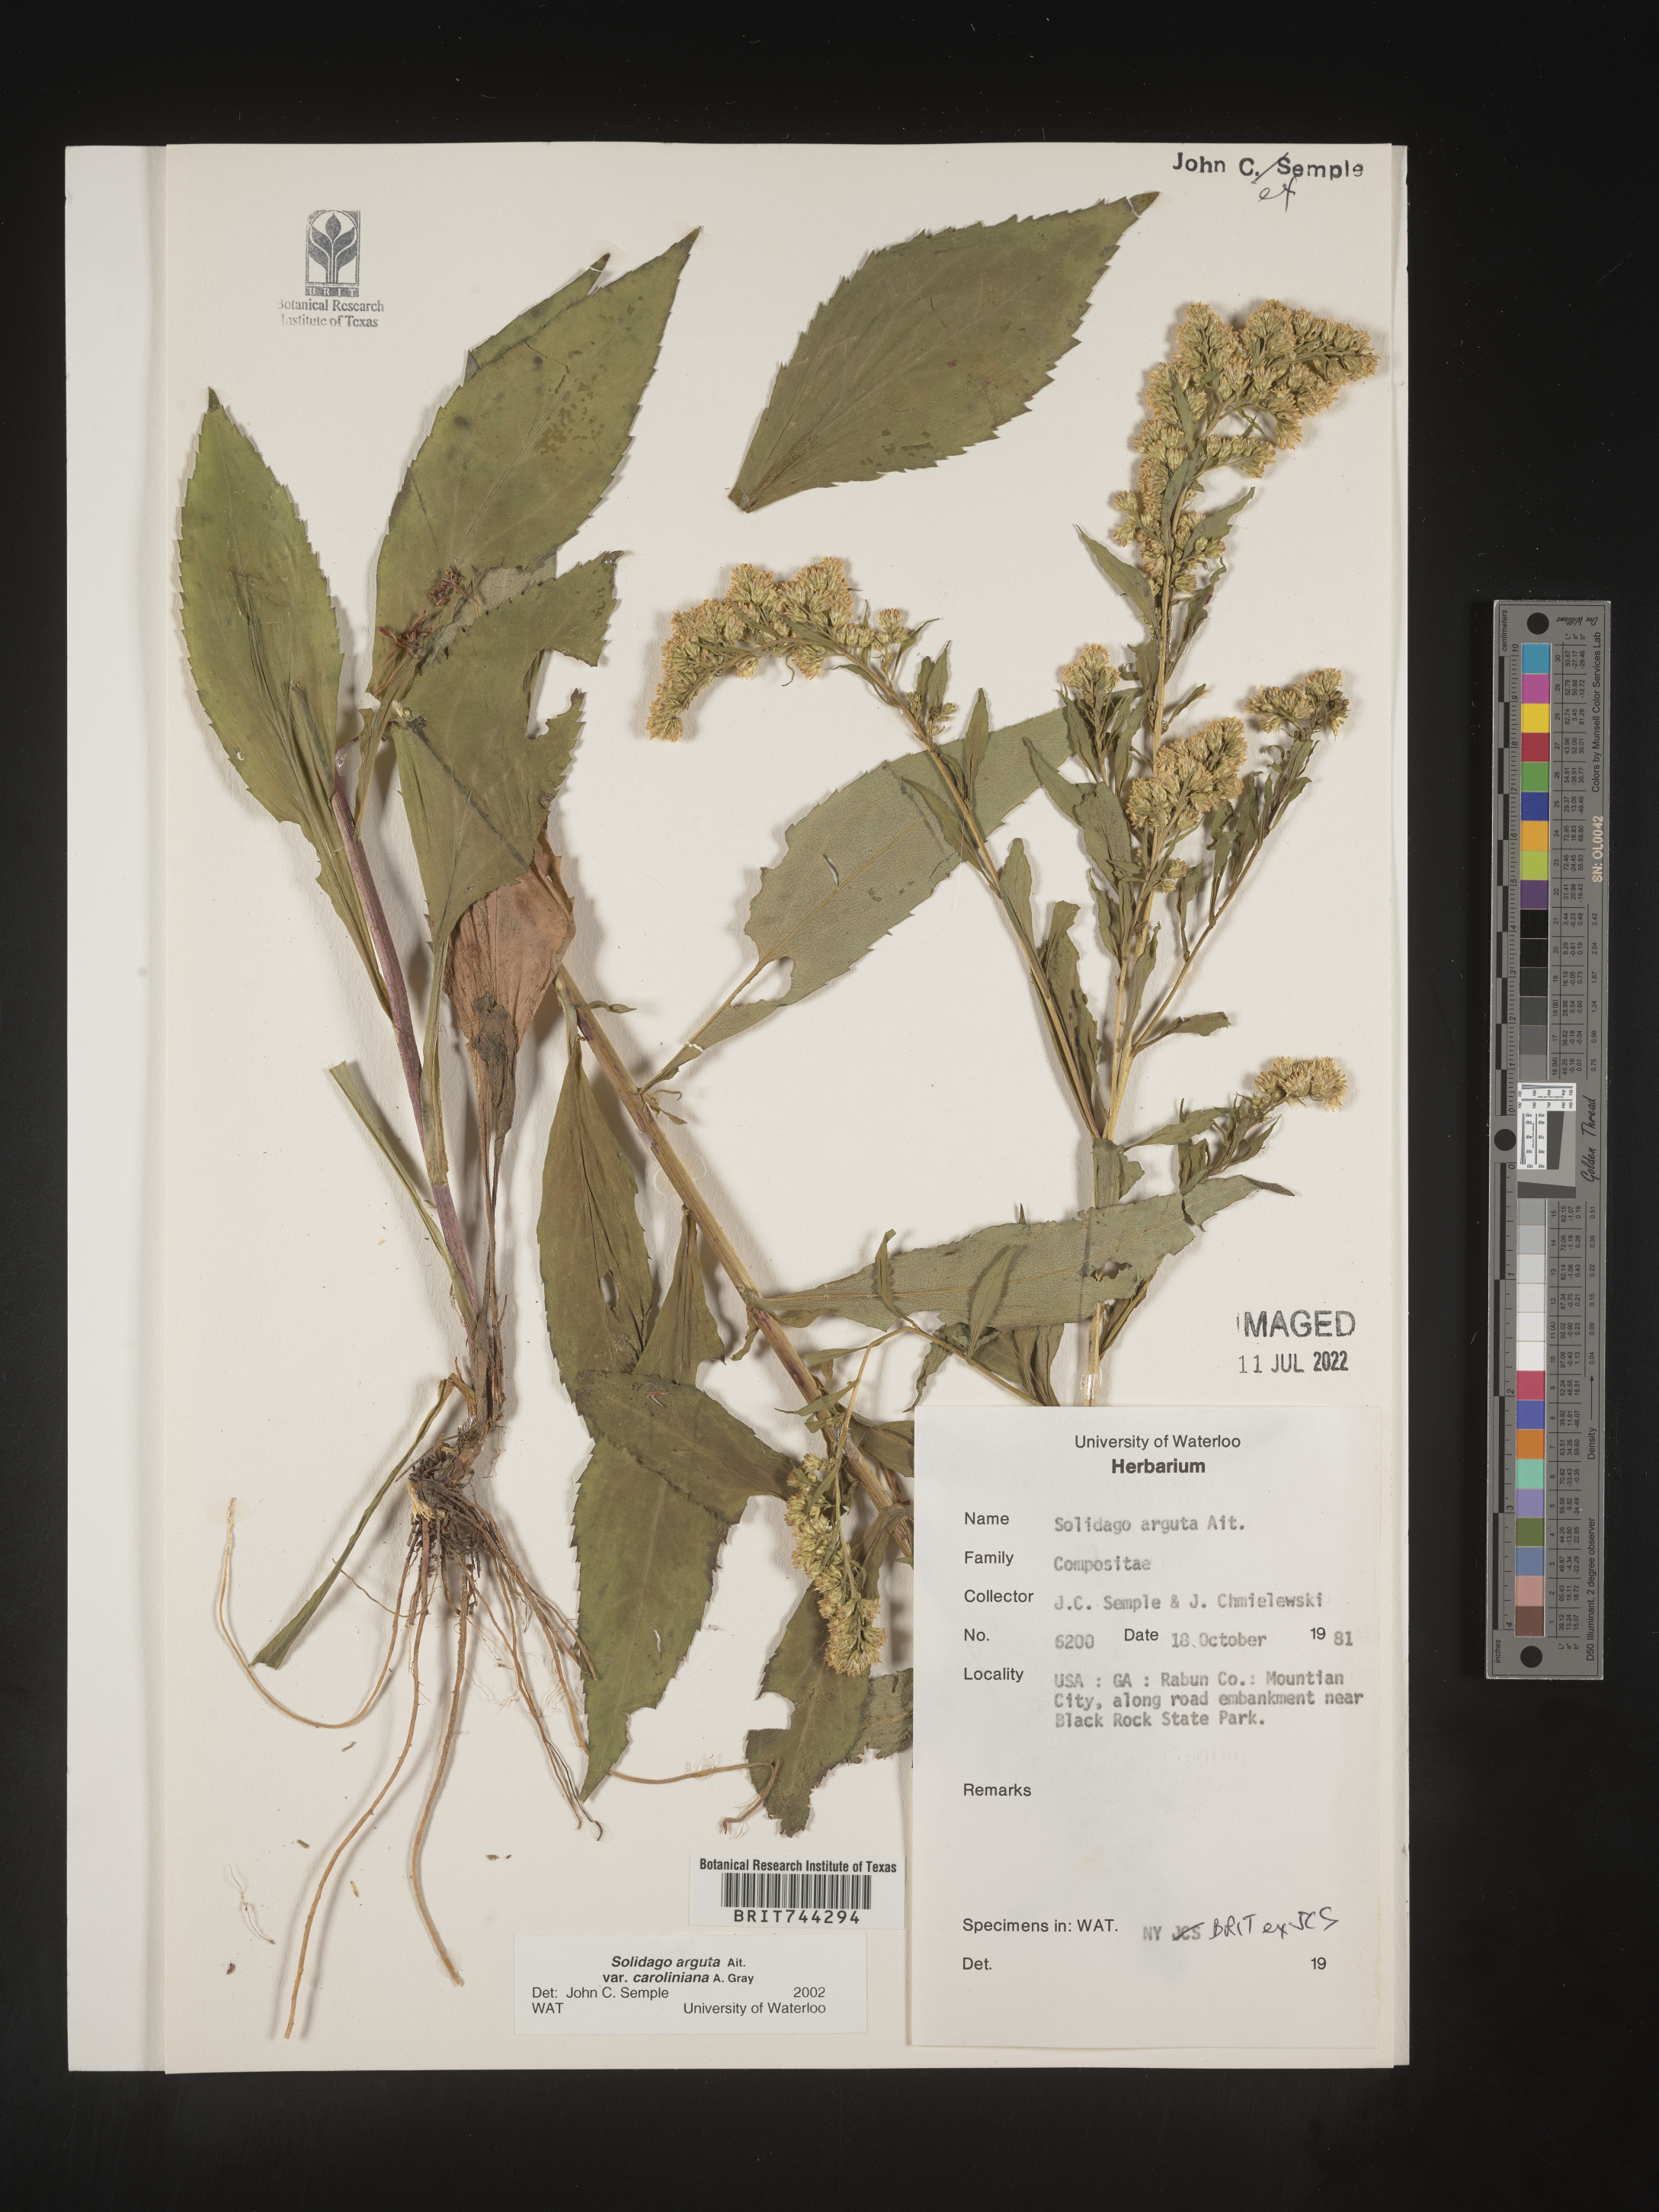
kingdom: Plantae
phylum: Tracheophyta
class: Magnoliopsida
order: Asterales
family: Asteraceae
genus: Solidago
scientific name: Solidago arguta
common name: Atlantic goldenrod
